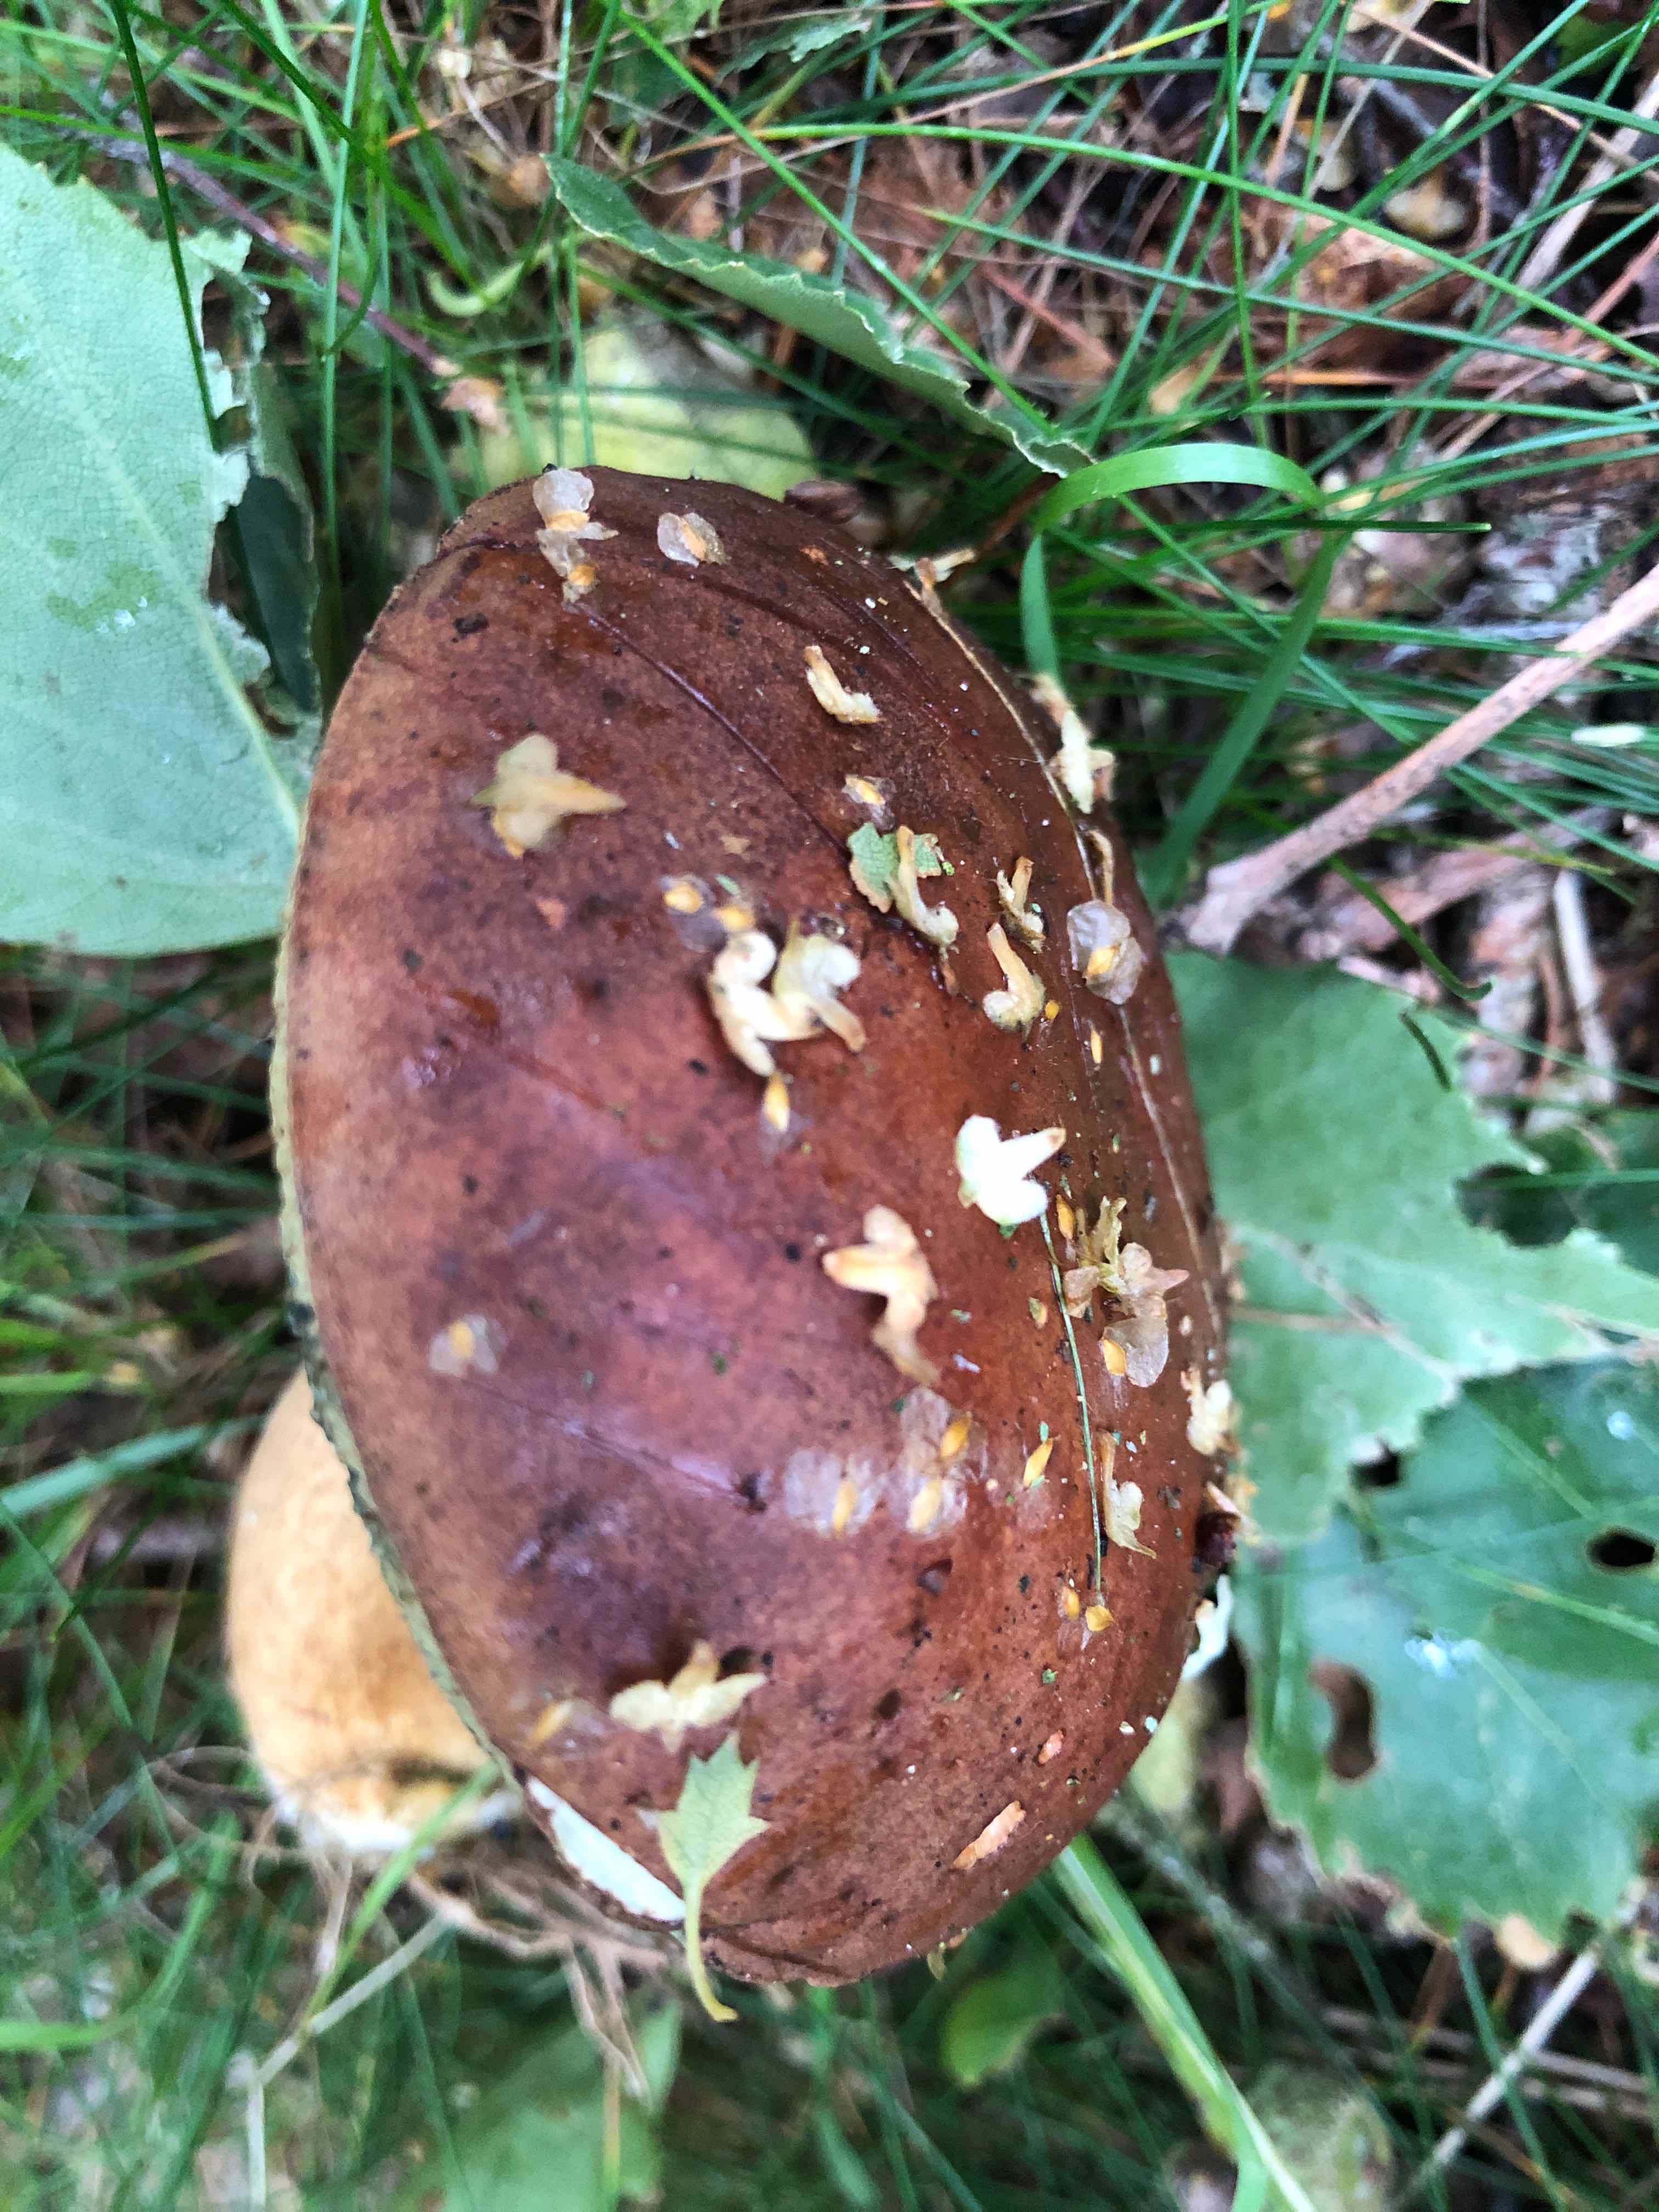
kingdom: Fungi
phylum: Basidiomycota
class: Agaricomycetes
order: Boletales
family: Boletaceae
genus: Imleria
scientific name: Imleria badia
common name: brunstokket rørhat
